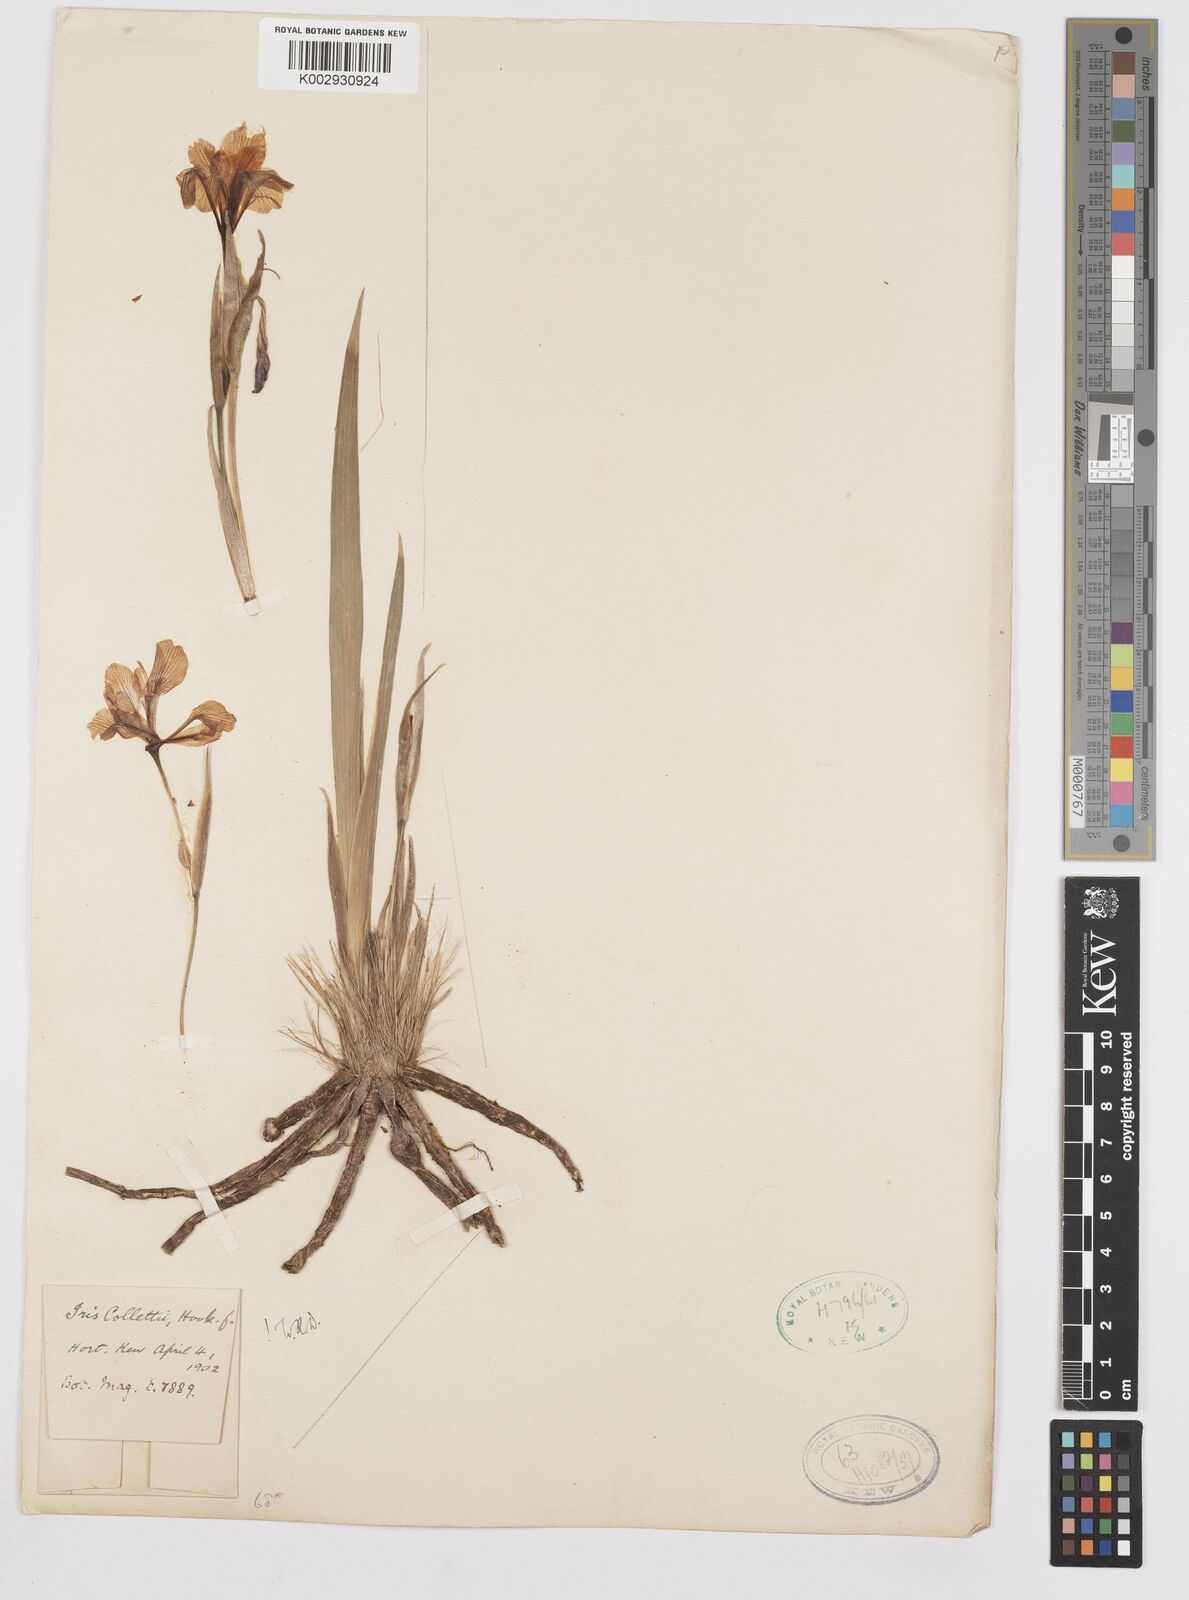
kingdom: Plantae
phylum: Tracheophyta
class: Liliopsida
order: Asparagales
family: Iridaceae
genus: Iris
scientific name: Iris collettii
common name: Plateau iris
